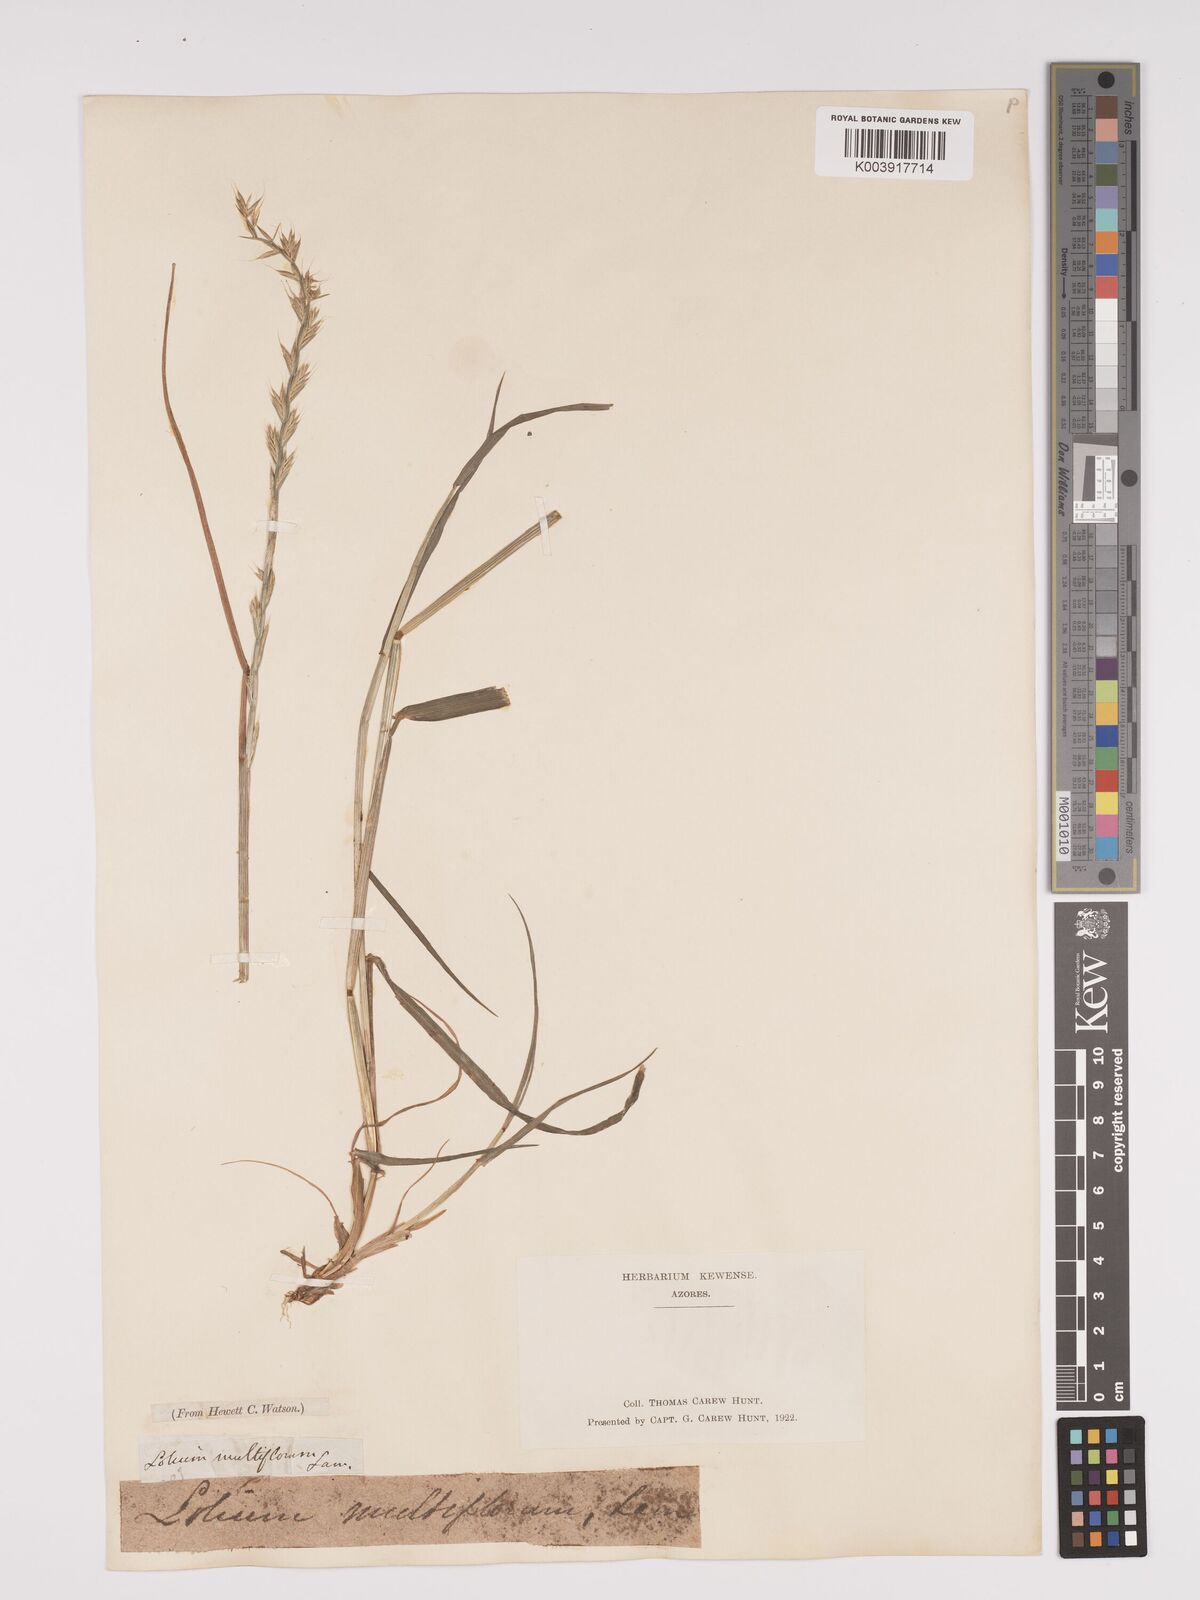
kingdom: Plantae
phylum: Tracheophyta
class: Liliopsida
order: Poales
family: Poaceae
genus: Lolium
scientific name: Lolium multiflorum
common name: Annual ryegrass
